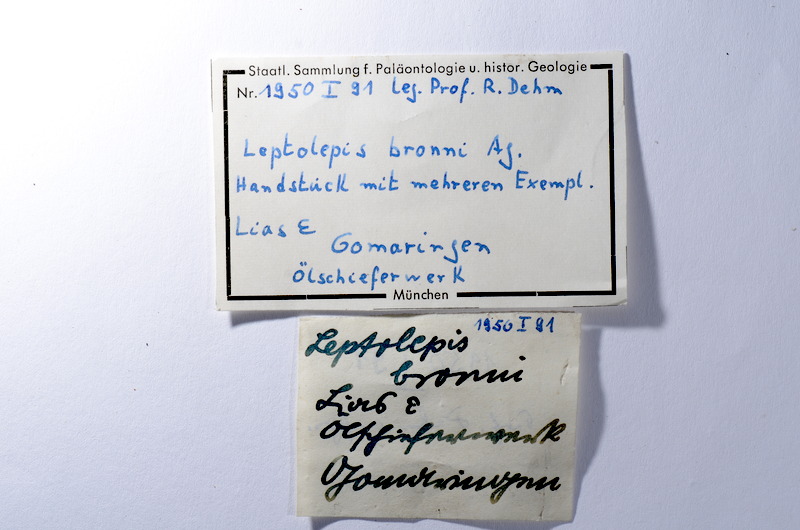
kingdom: Animalia
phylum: Chordata
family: Leptolepididae
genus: Leptolepis
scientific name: Leptolepis coryphaenoides
